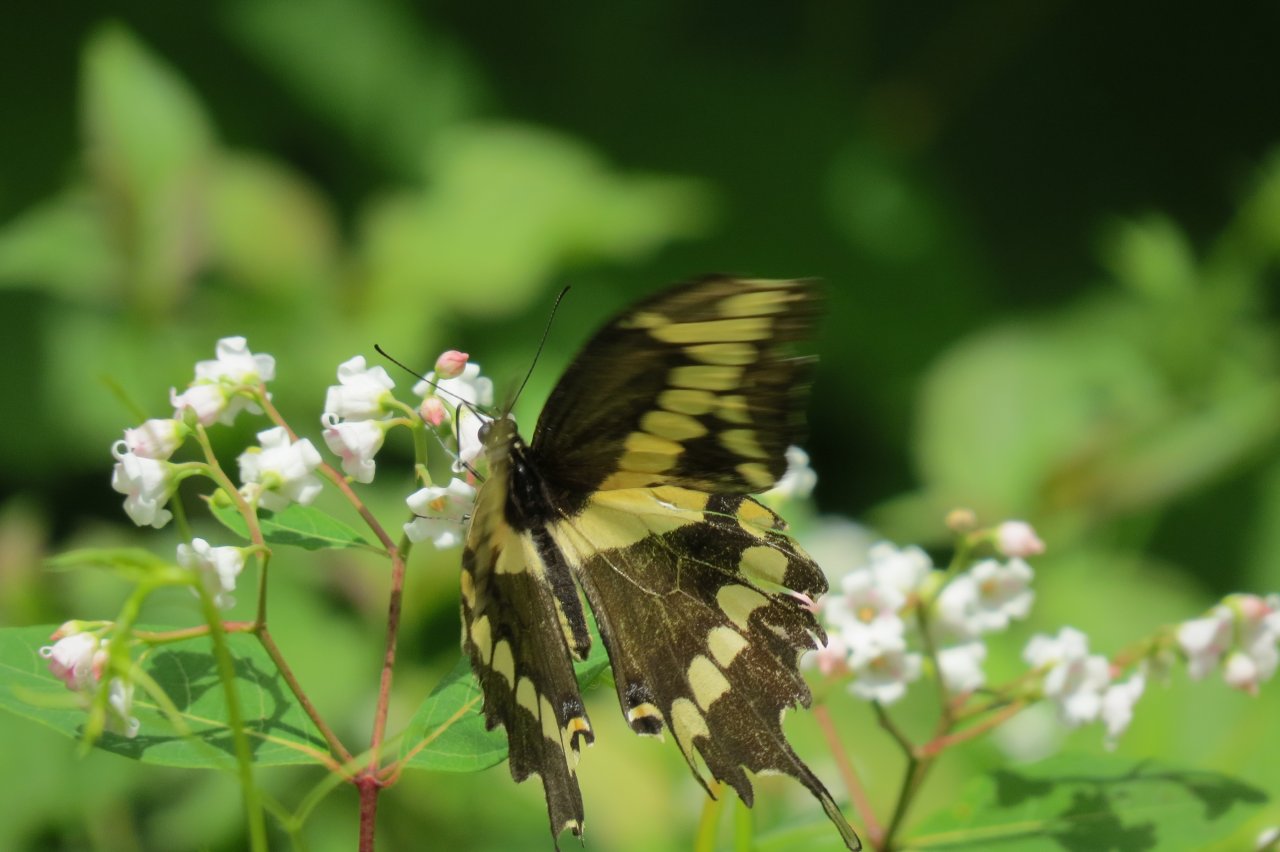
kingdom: Animalia
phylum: Arthropoda
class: Insecta
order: Lepidoptera
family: Papilionidae
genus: Papilio
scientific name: Papilio cresphontes
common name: Eastern Giant Swallowtail
